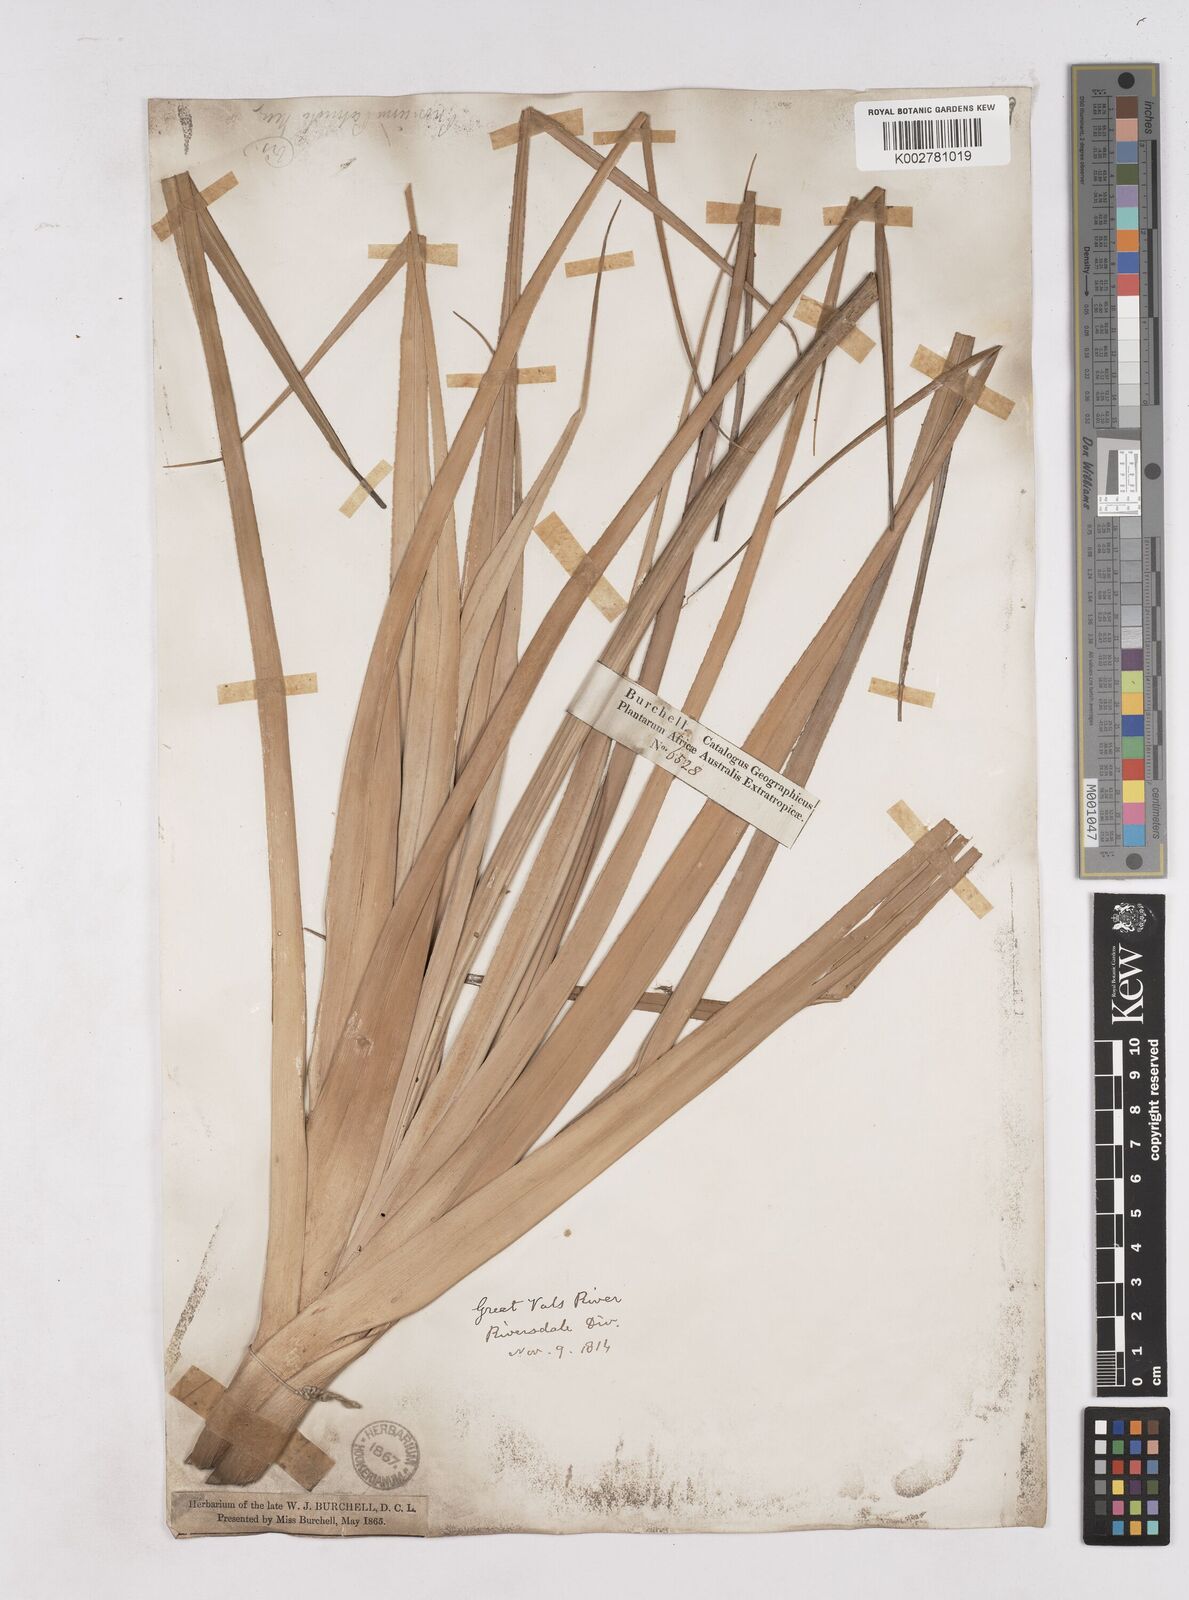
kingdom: Plantae
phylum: Tracheophyta
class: Liliopsida
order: Poales
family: Thurniaceae
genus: Prionium
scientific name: Prionium serratum
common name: Palmiet
